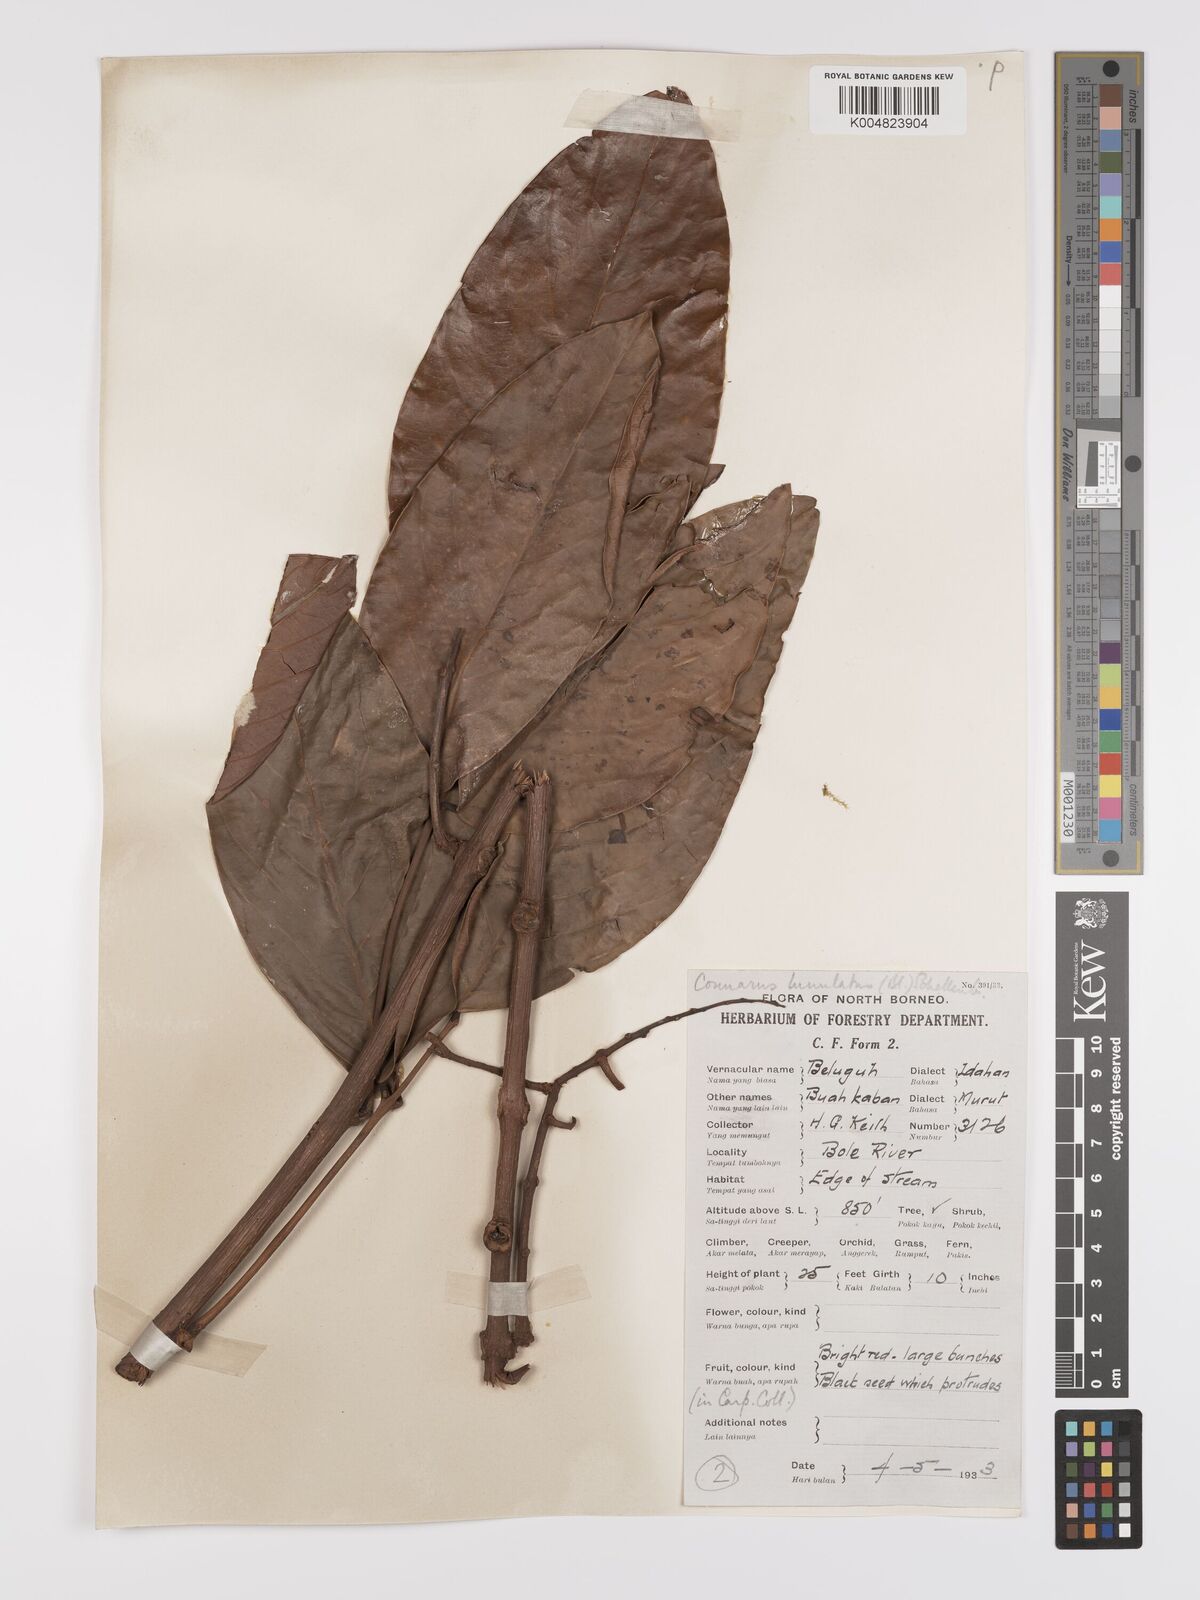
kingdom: Plantae
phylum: Tracheophyta
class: Magnoliopsida
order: Oxalidales
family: Connaraceae
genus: Connarus
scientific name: Connarus grandis
